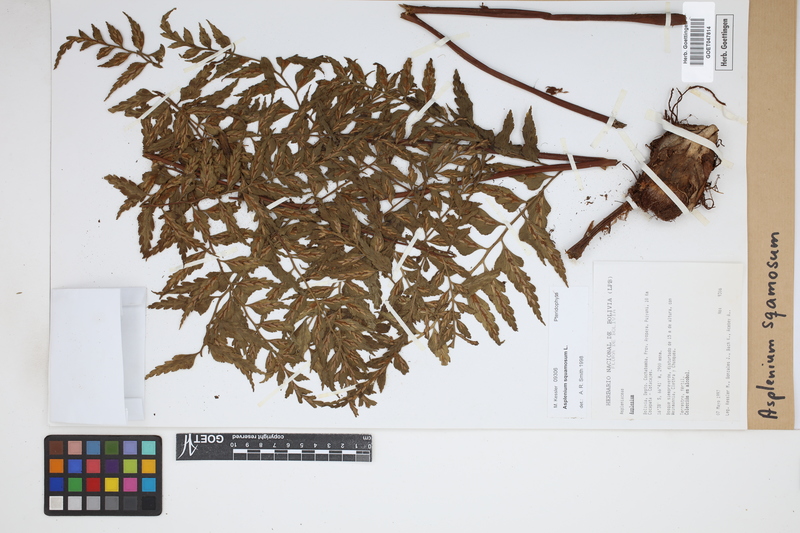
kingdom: Plantae
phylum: Tracheophyta
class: Polypodiopsida
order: Polypodiales
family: Aspleniaceae
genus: Asplenium
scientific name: Asplenium squamosum
